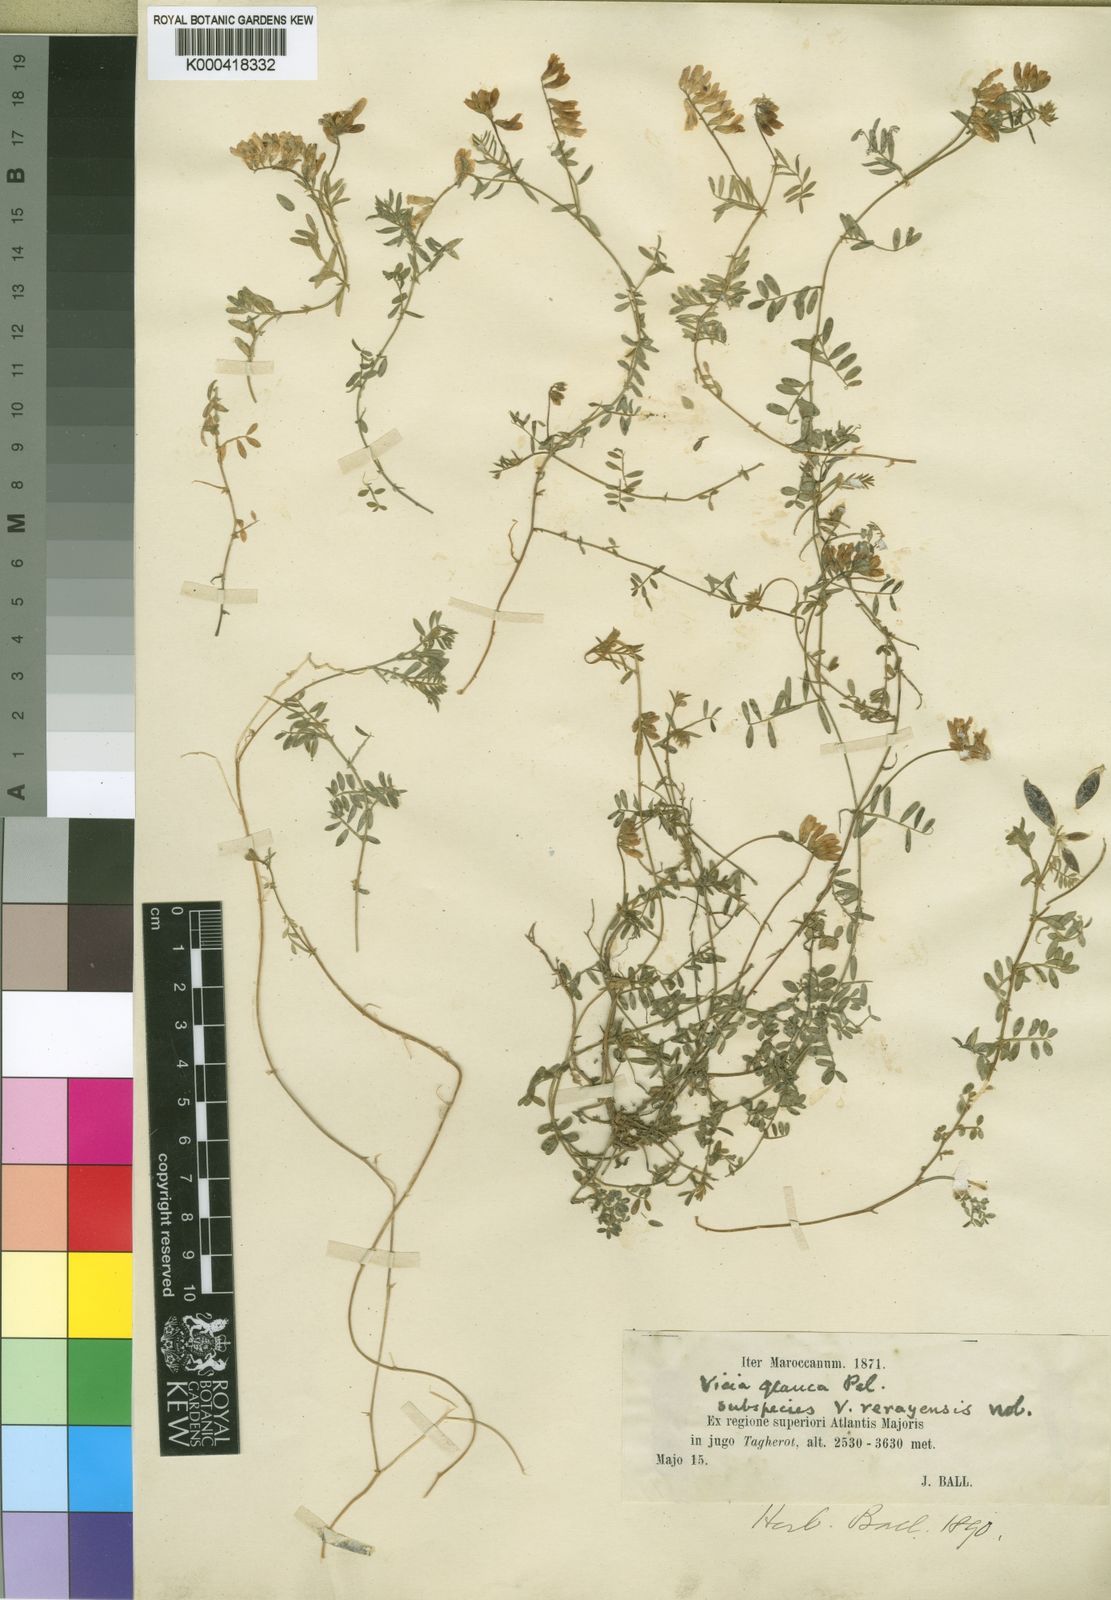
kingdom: Plantae
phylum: Tracheophyta
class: Magnoliopsida
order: Fabales
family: Fabaceae
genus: Vicia
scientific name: Vicia
